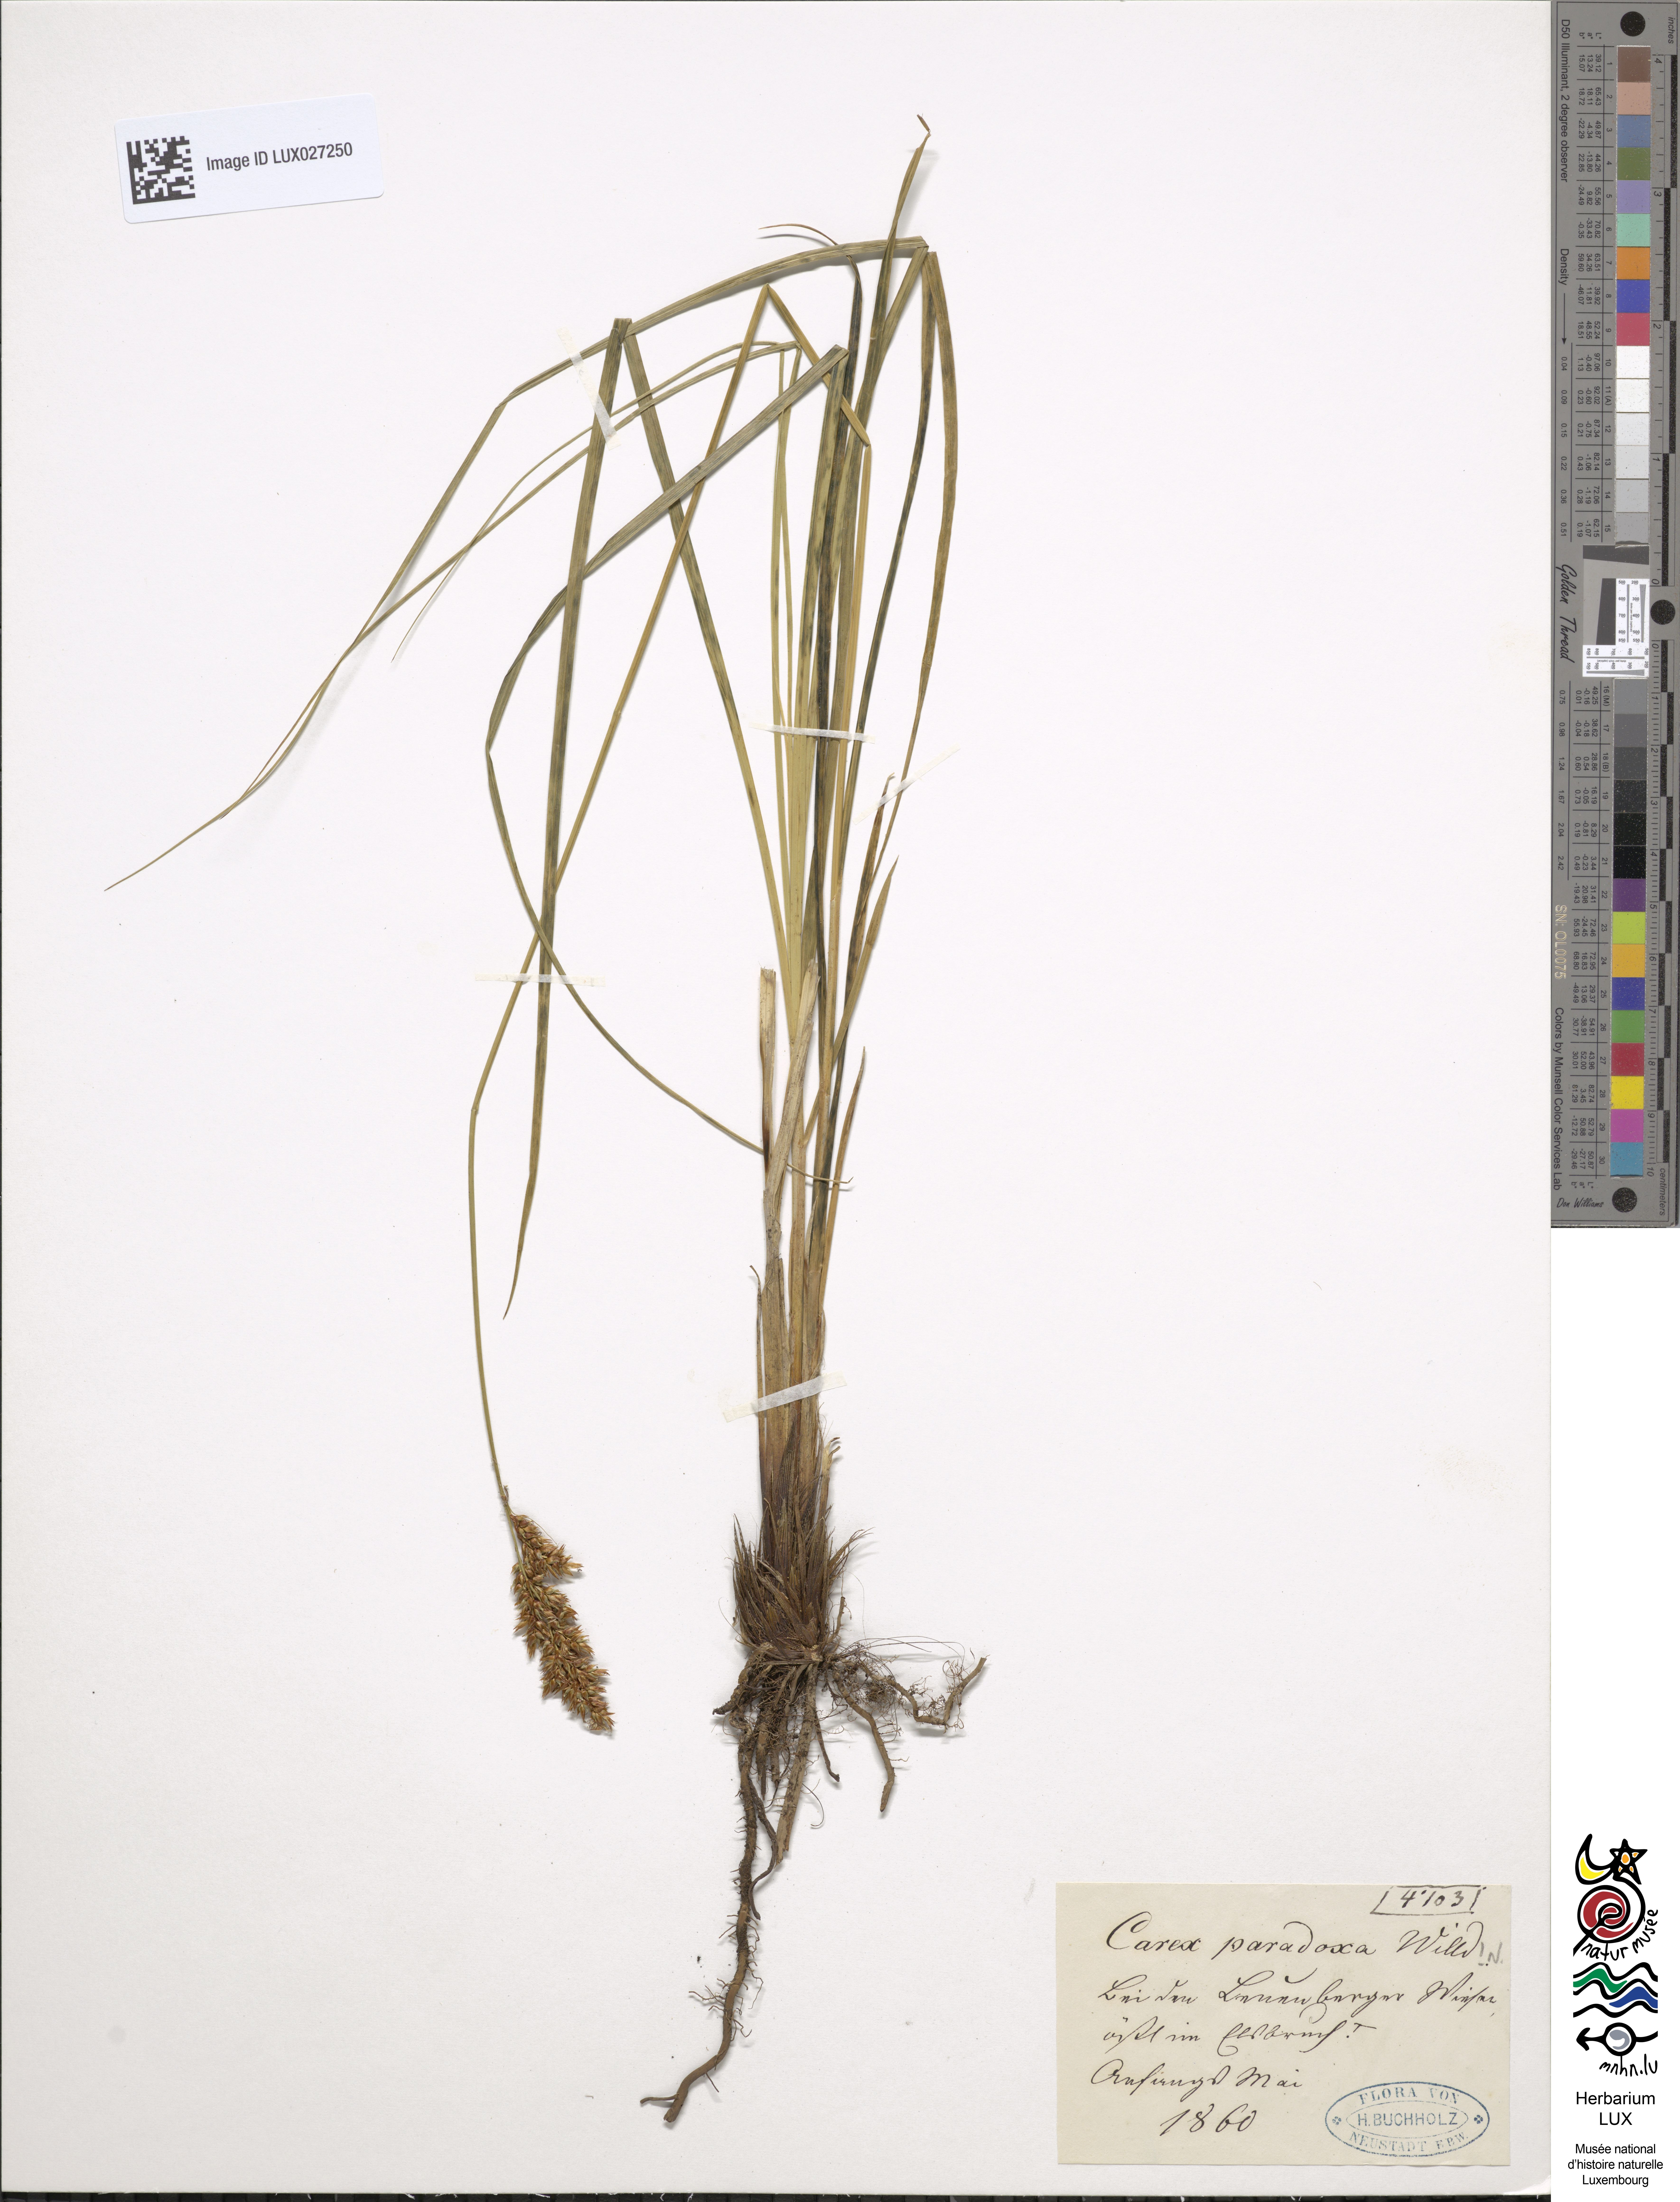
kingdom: Plantae
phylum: Tracheophyta
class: Liliopsida
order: Poales
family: Cyperaceae
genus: Carex
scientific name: Carex appropinquata
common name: Fibrous tussock-sedge
